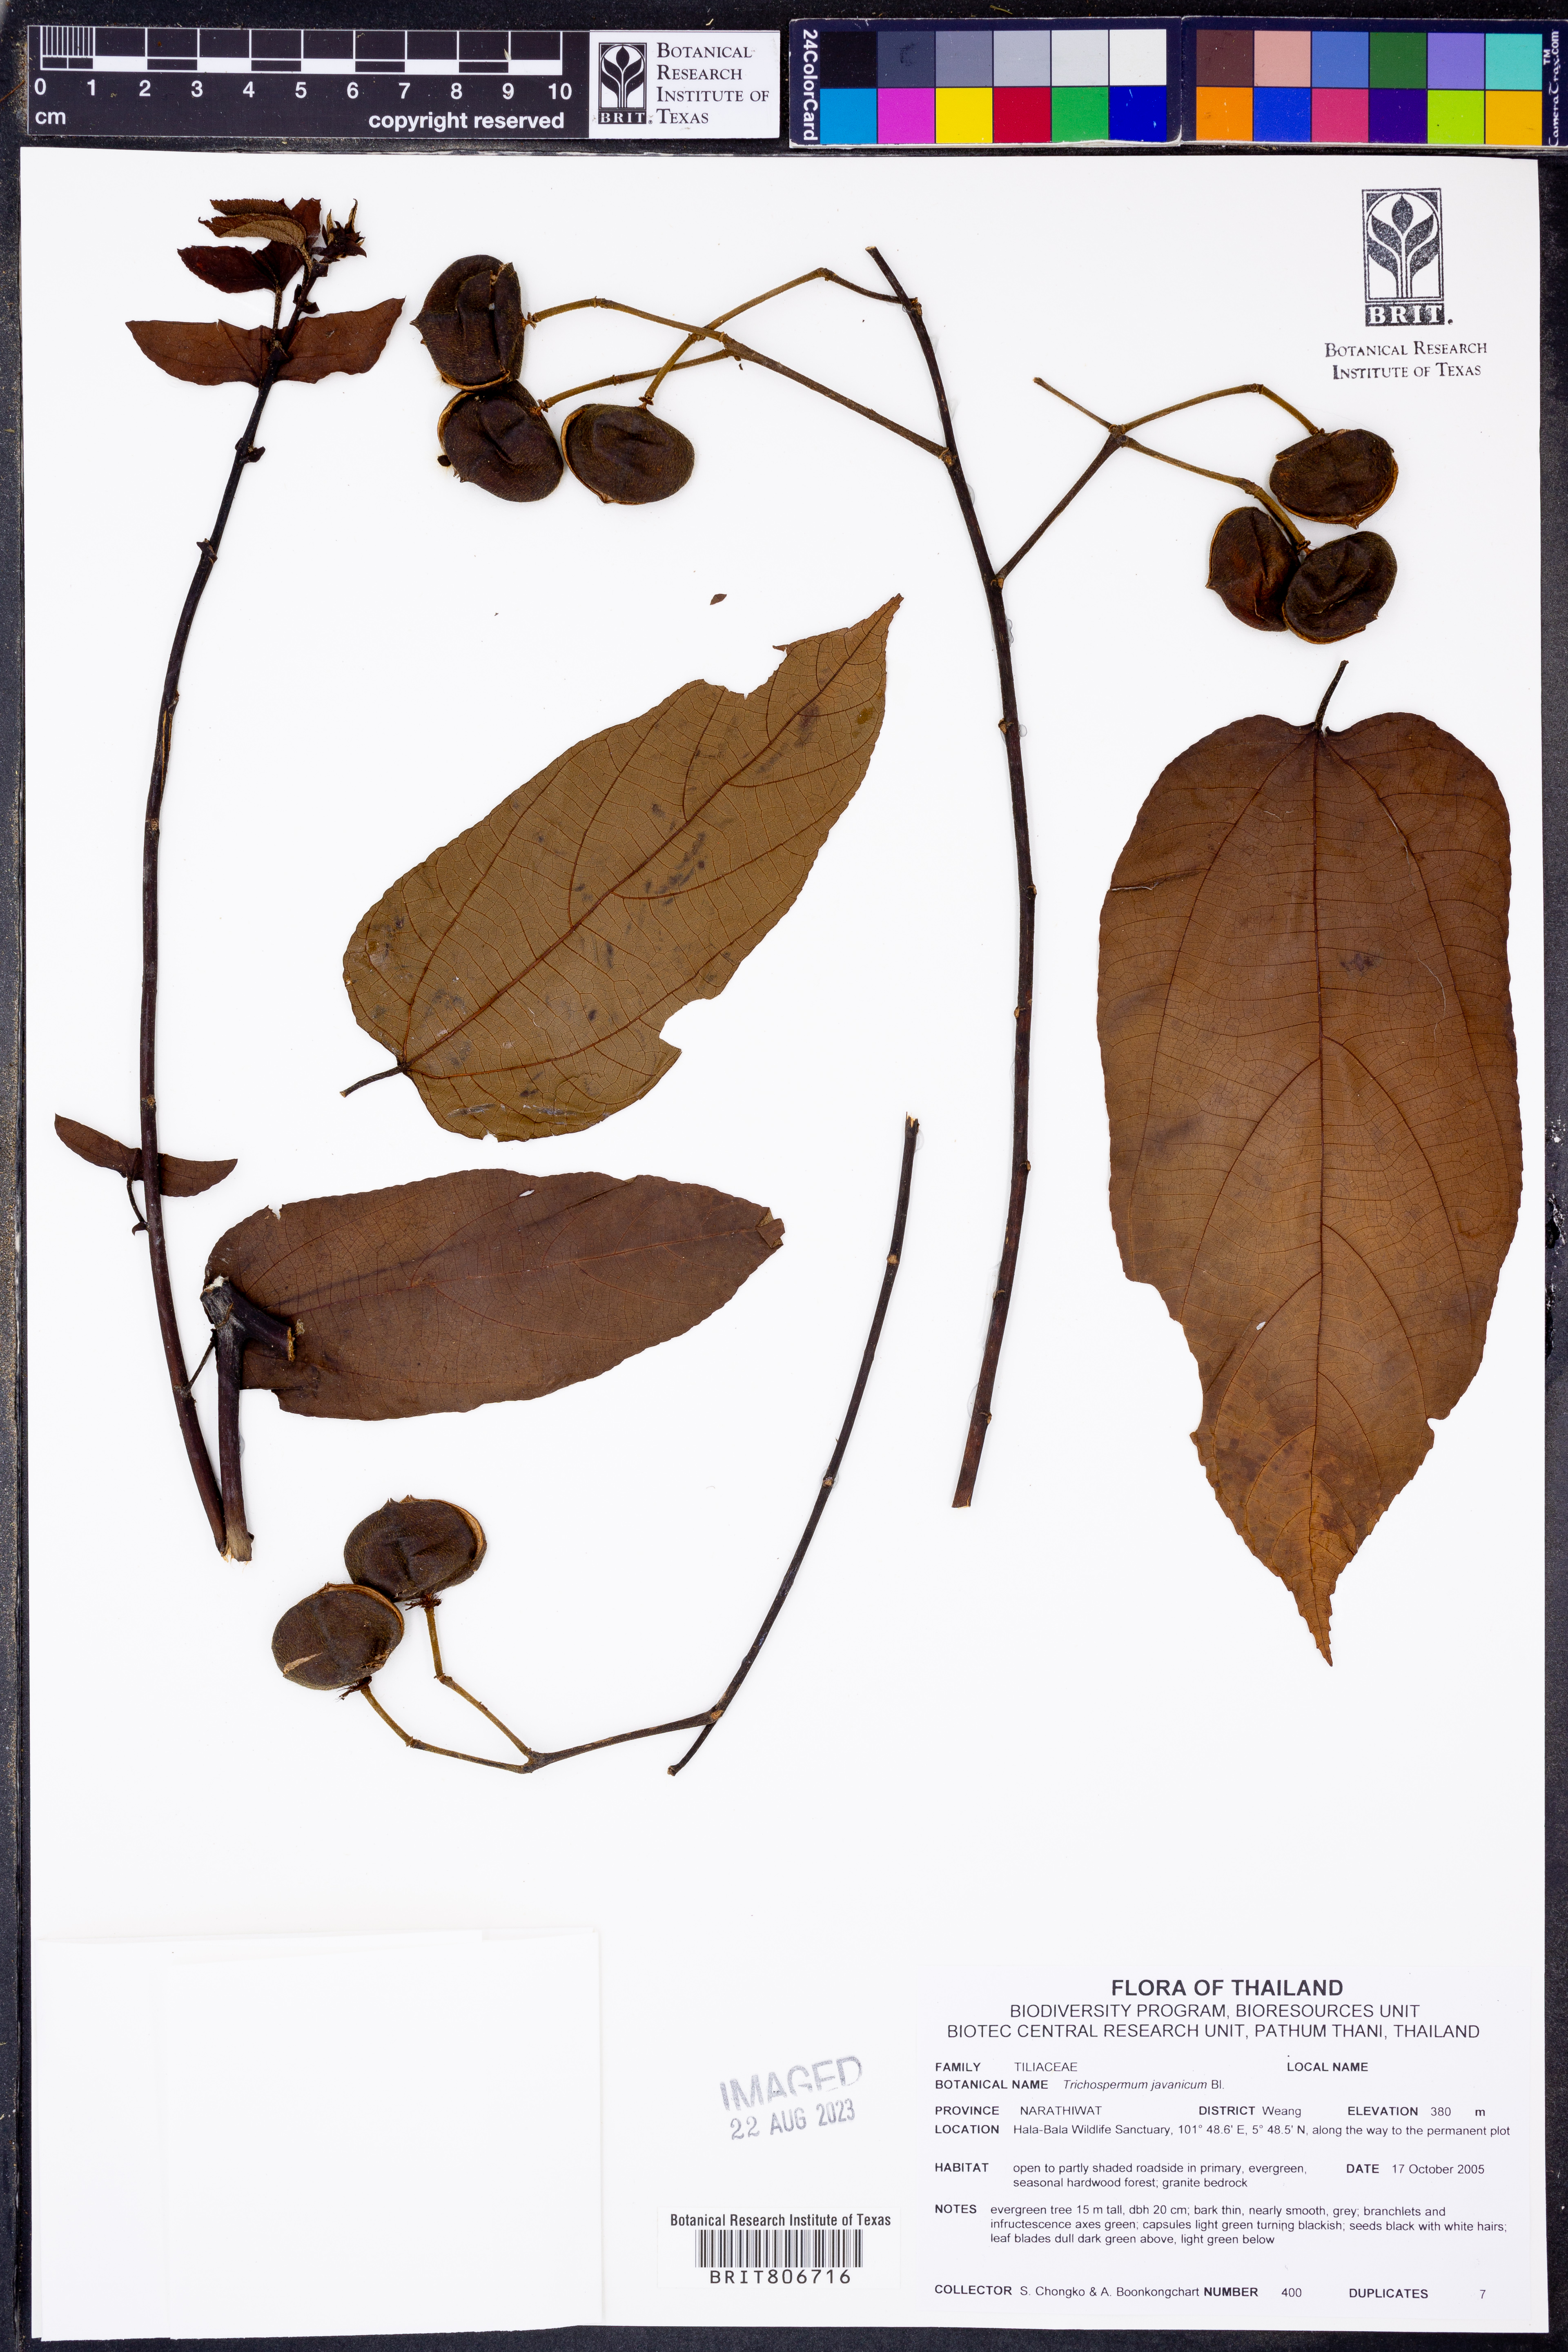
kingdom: Plantae
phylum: Tracheophyta
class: Magnoliopsida
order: Malvales
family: Malvaceae
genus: Trichospermum
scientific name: Trichospermum javanicum
